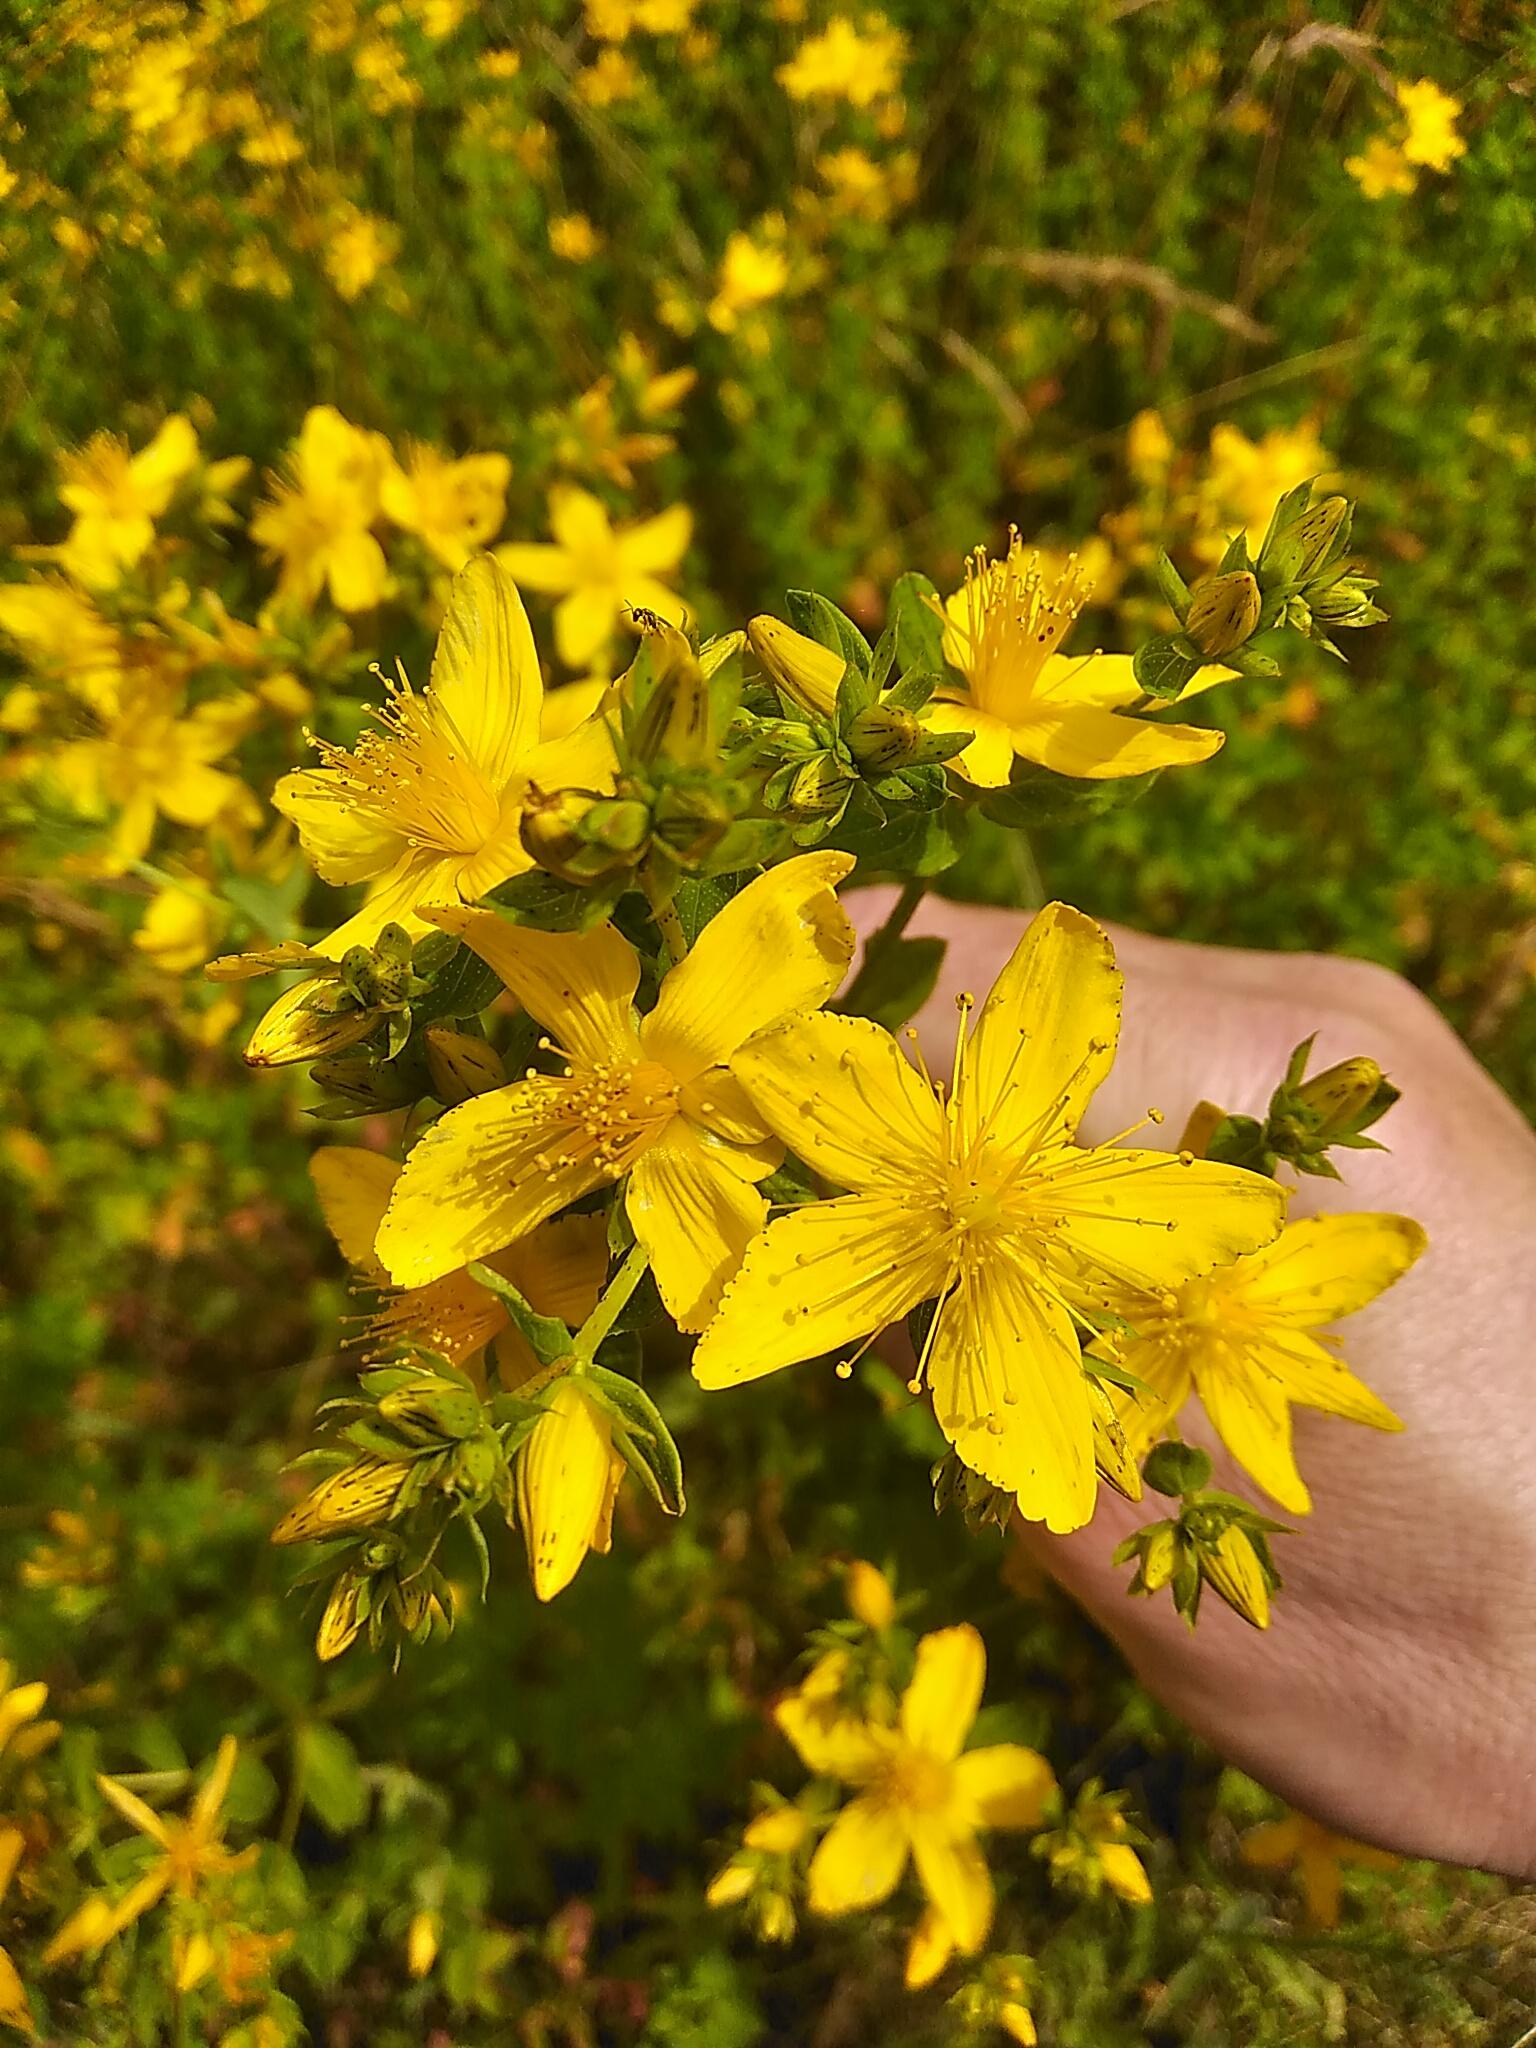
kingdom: Plantae
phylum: Tracheophyta
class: Magnoliopsida
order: Malpighiales
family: Hypericaceae
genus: Hypericum
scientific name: Hypericum perforatum
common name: Prikbladet perikon
